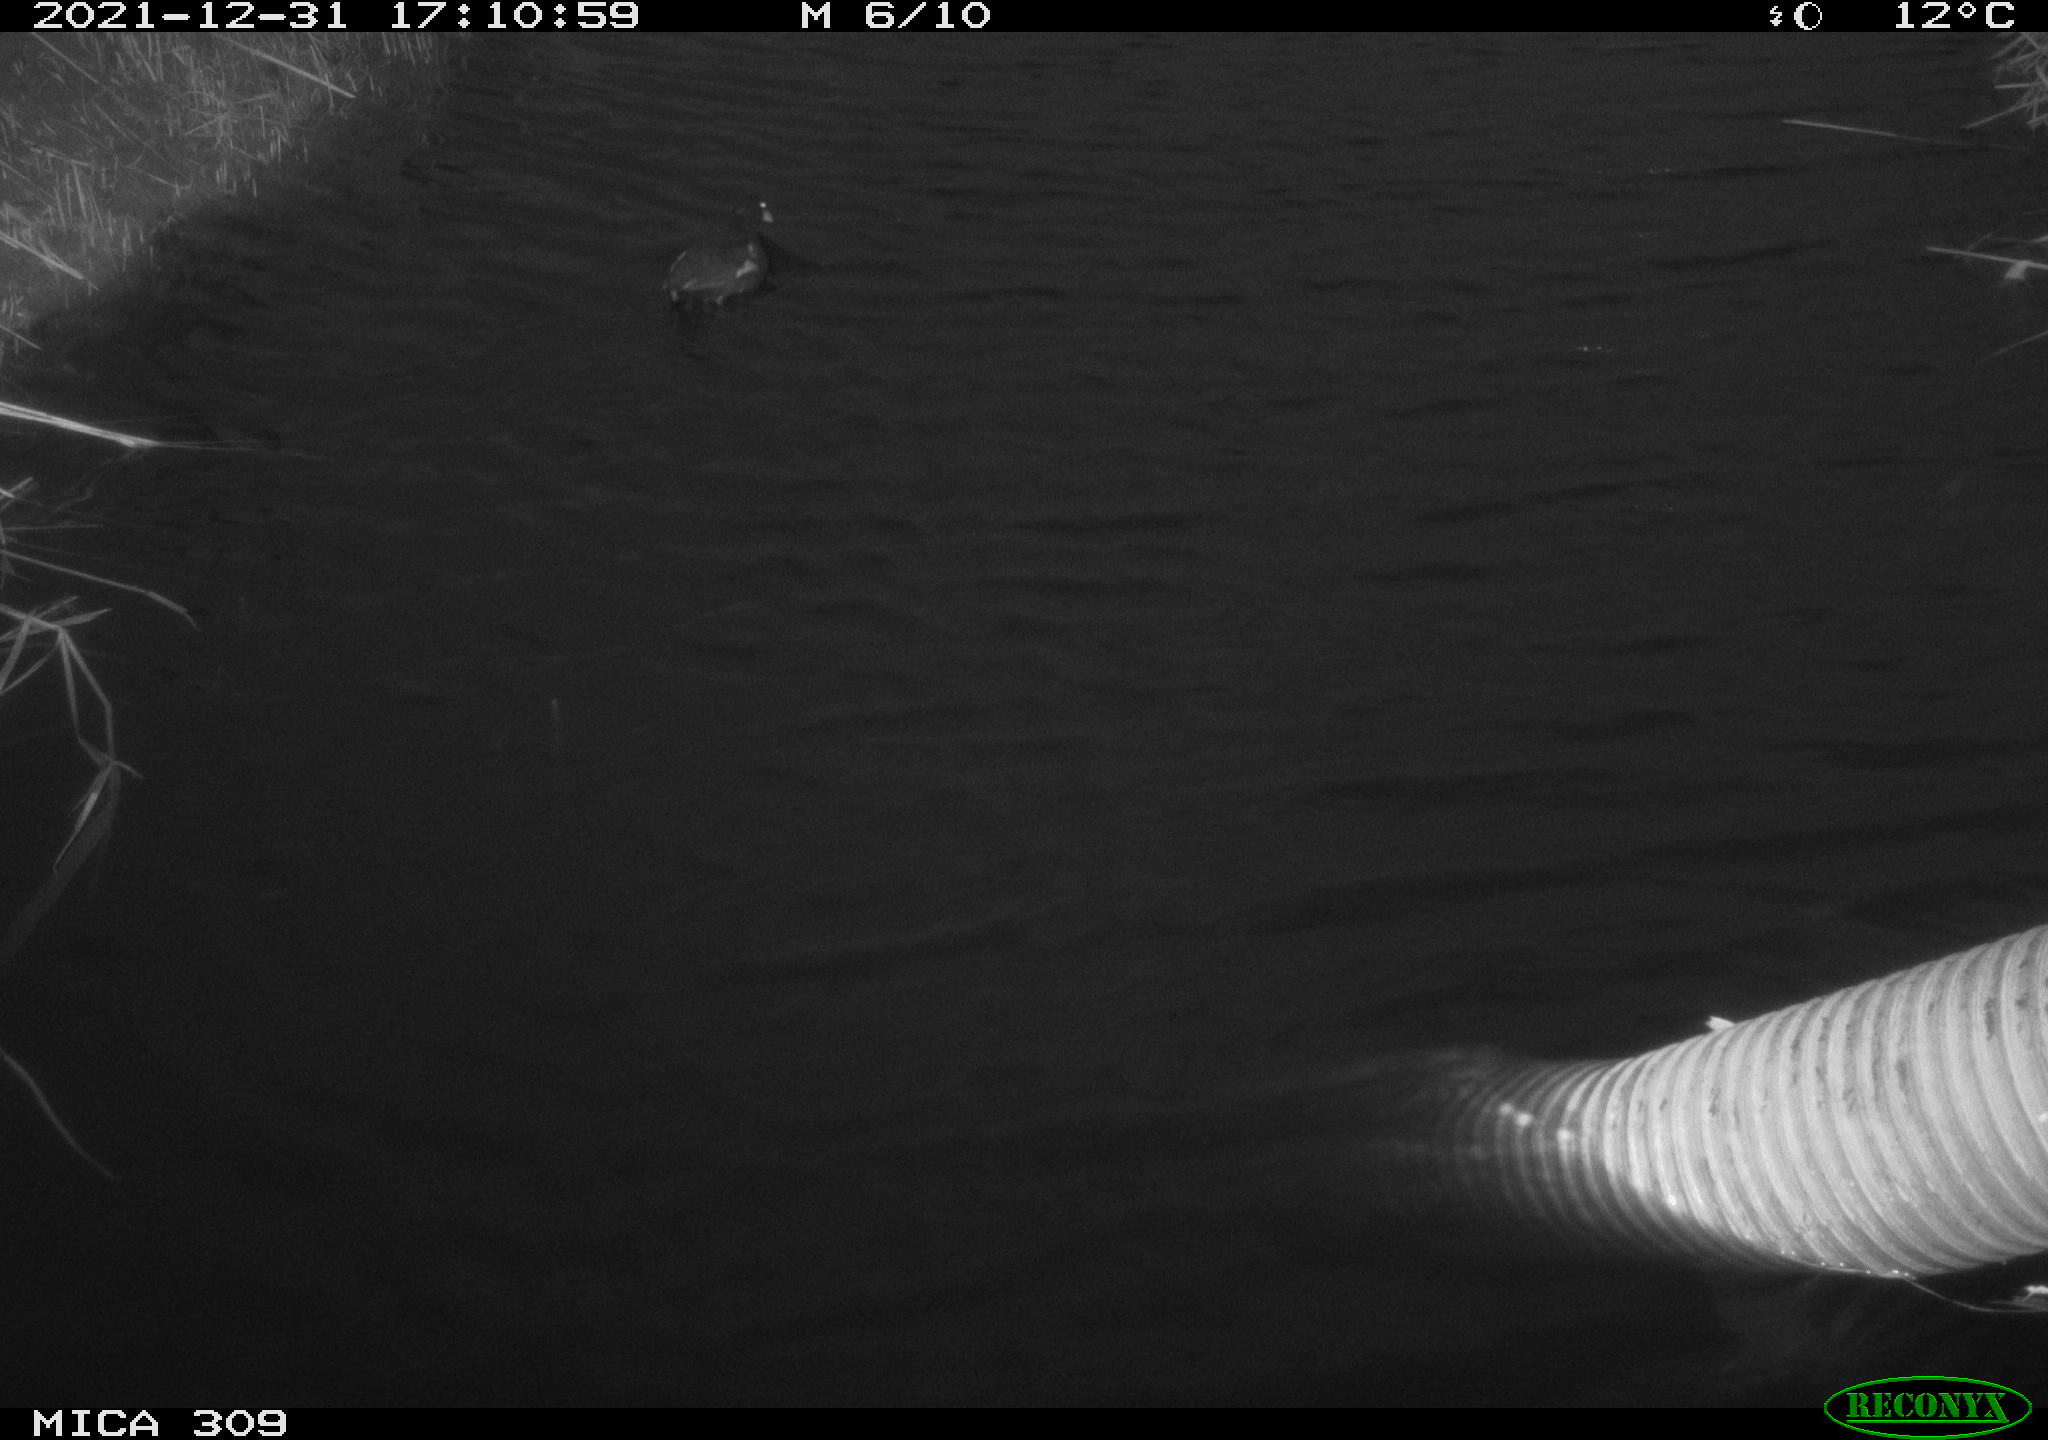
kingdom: Animalia
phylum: Chordata
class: Aves
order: Gruiformes
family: Rallidae
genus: Gallinula
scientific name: Gallinula chloropus
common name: Common moorhen
